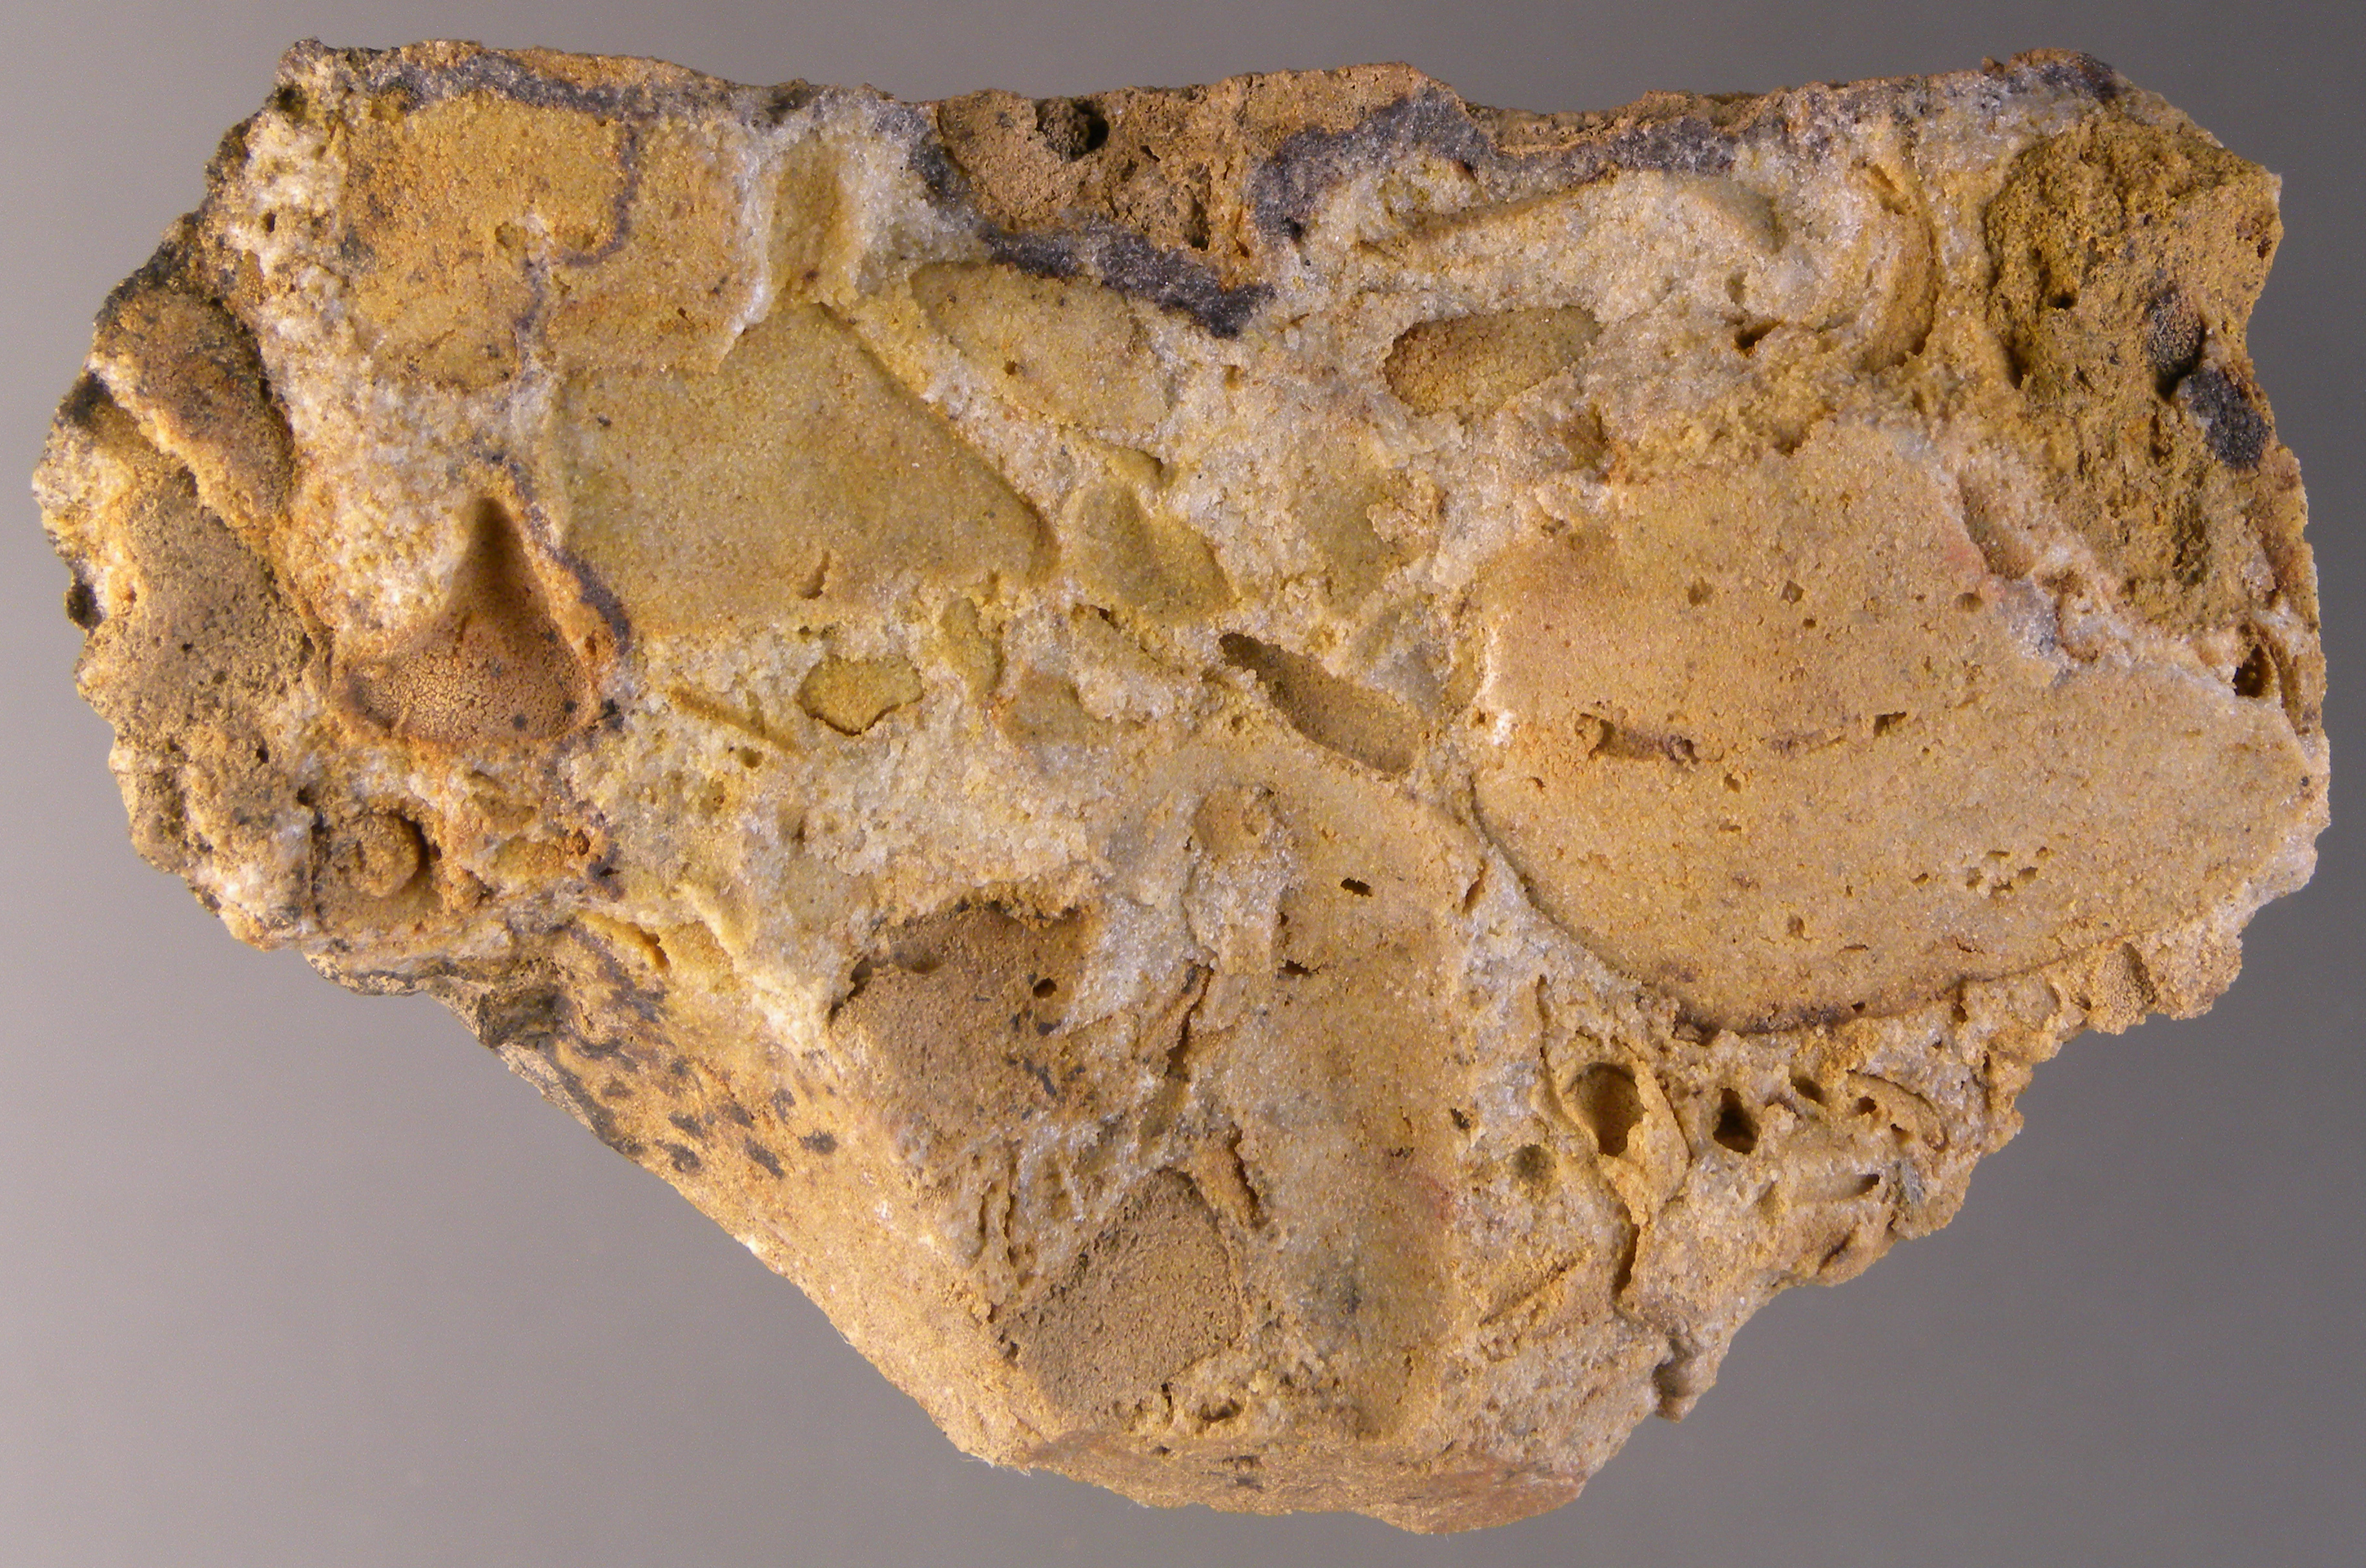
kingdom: Animalia
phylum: Mollusca
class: Bivalvia
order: Modiomorphida
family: Modiomorphidae
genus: Modiomorpha
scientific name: Modiomorpha
